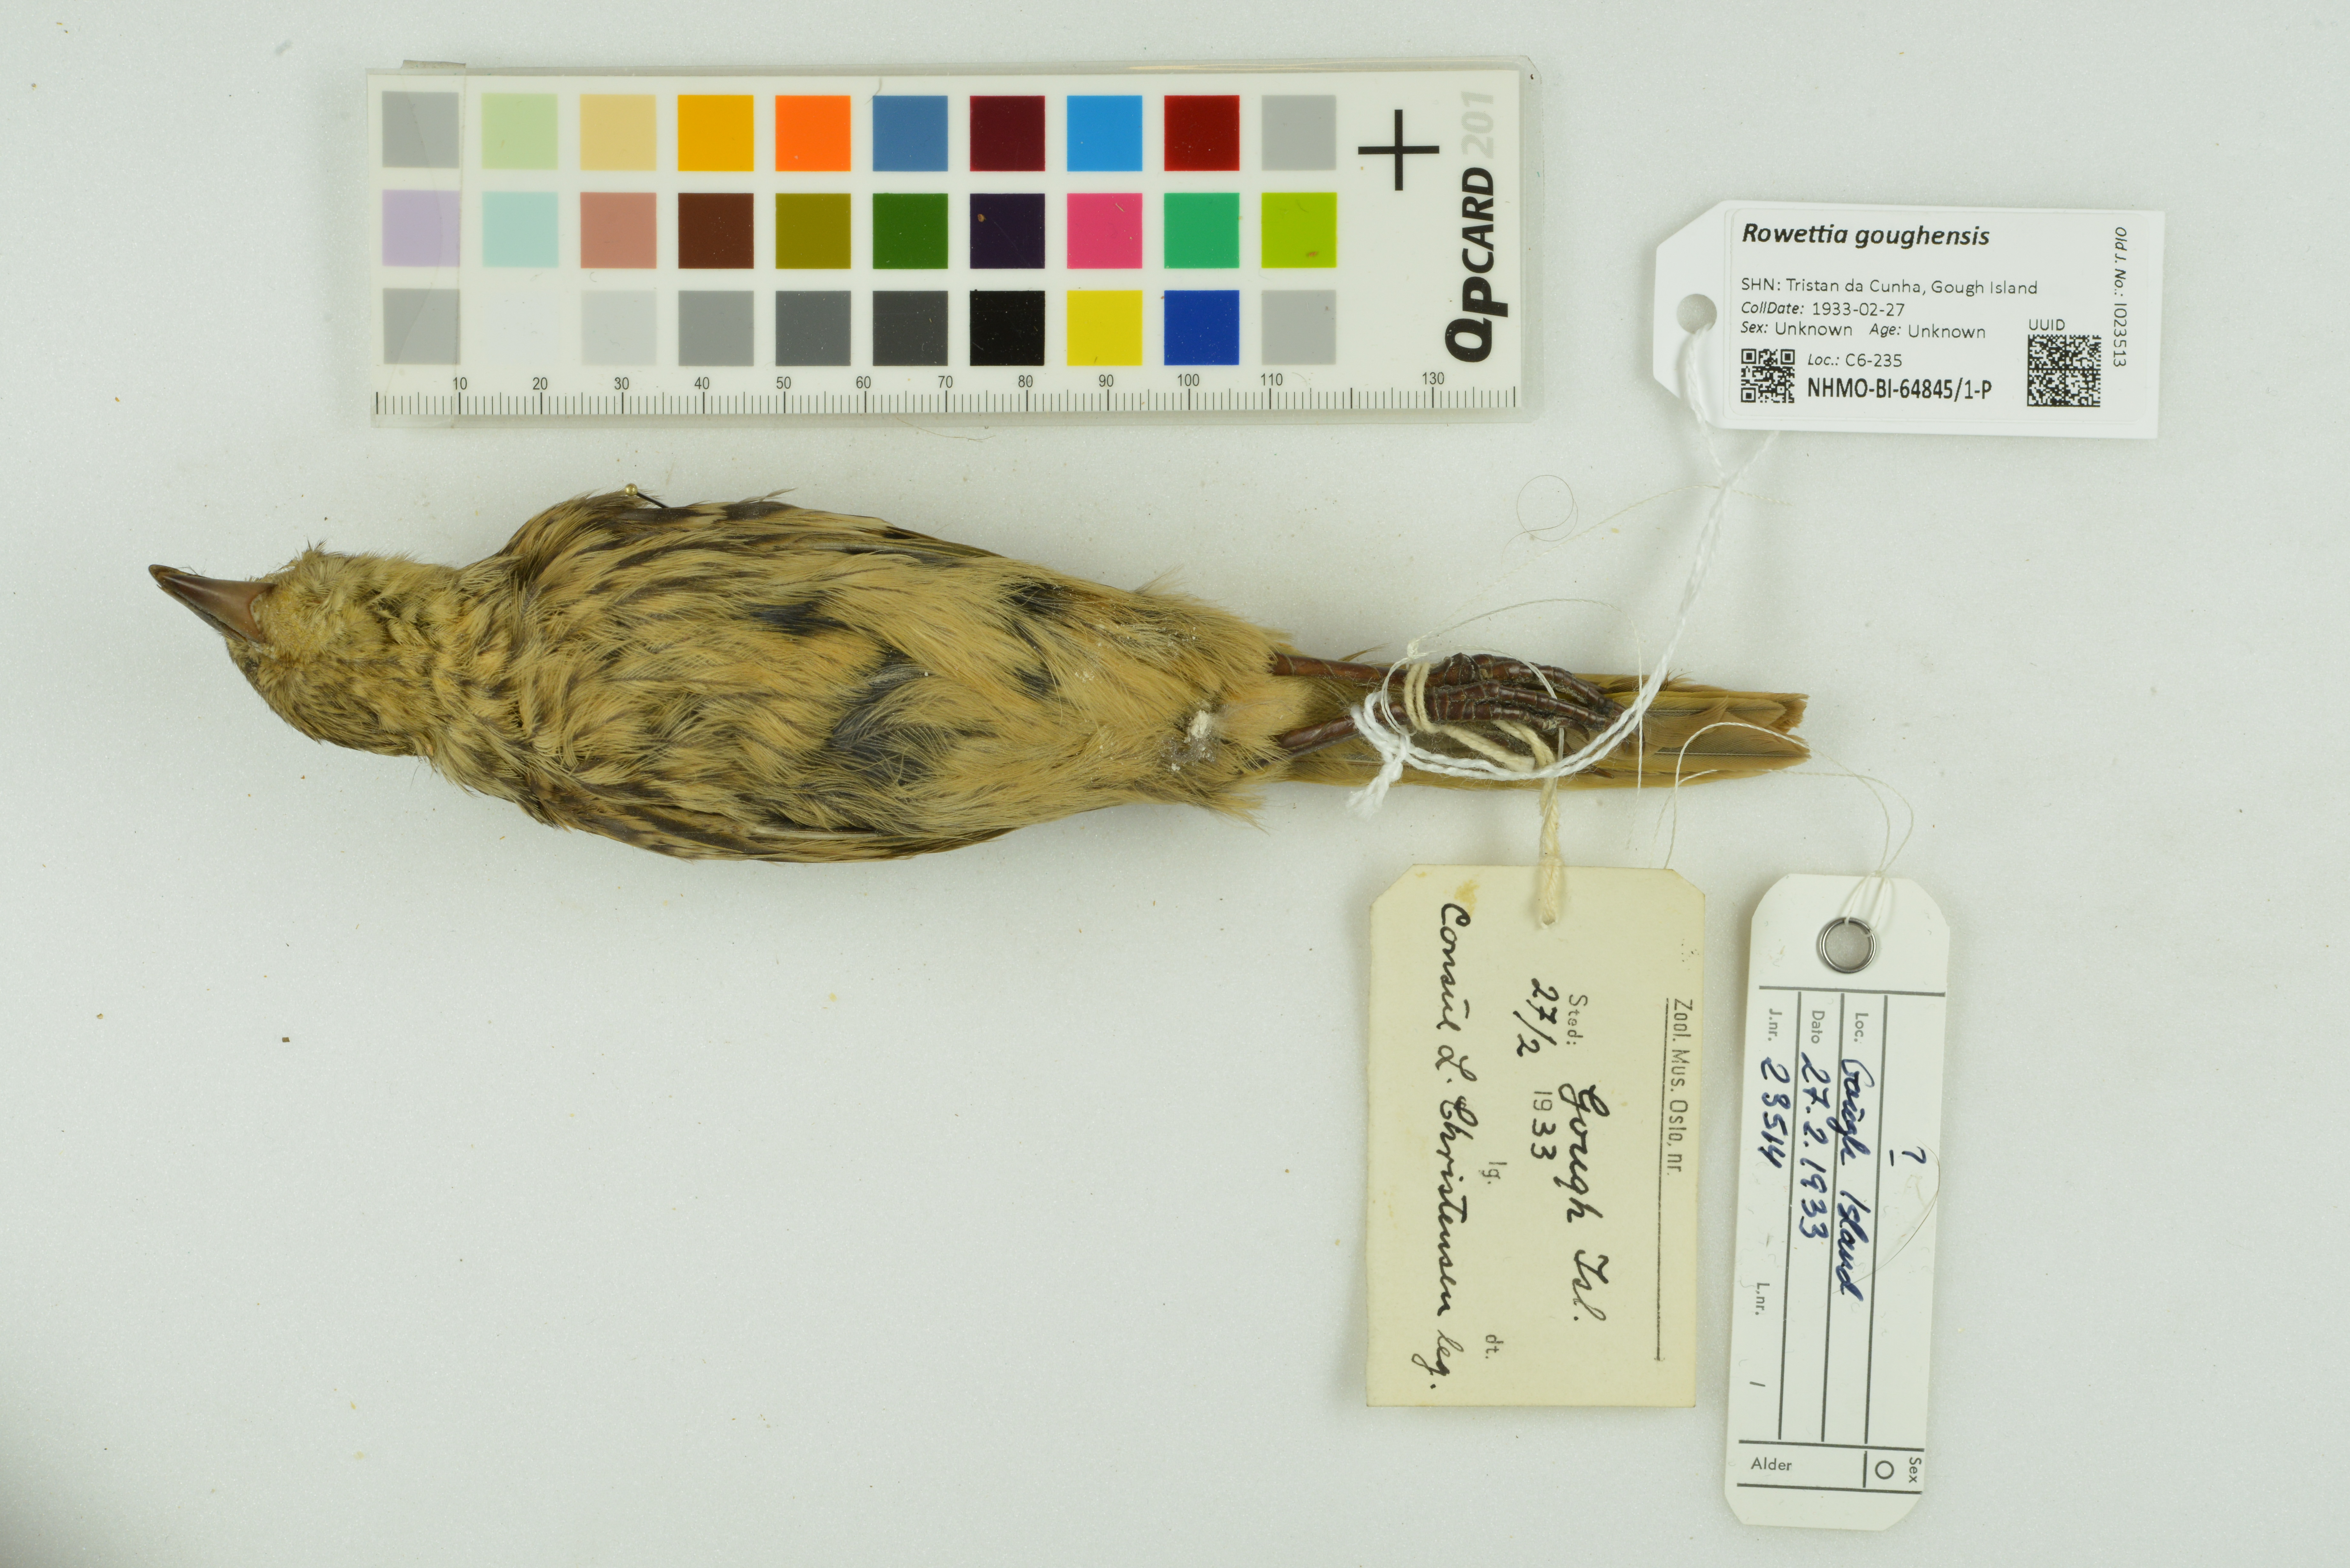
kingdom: Animalia
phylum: Chordata
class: Aves
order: Passeriformes
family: Thraupidae
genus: Rowettia
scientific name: Rowettia goughensis
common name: Gough finch
